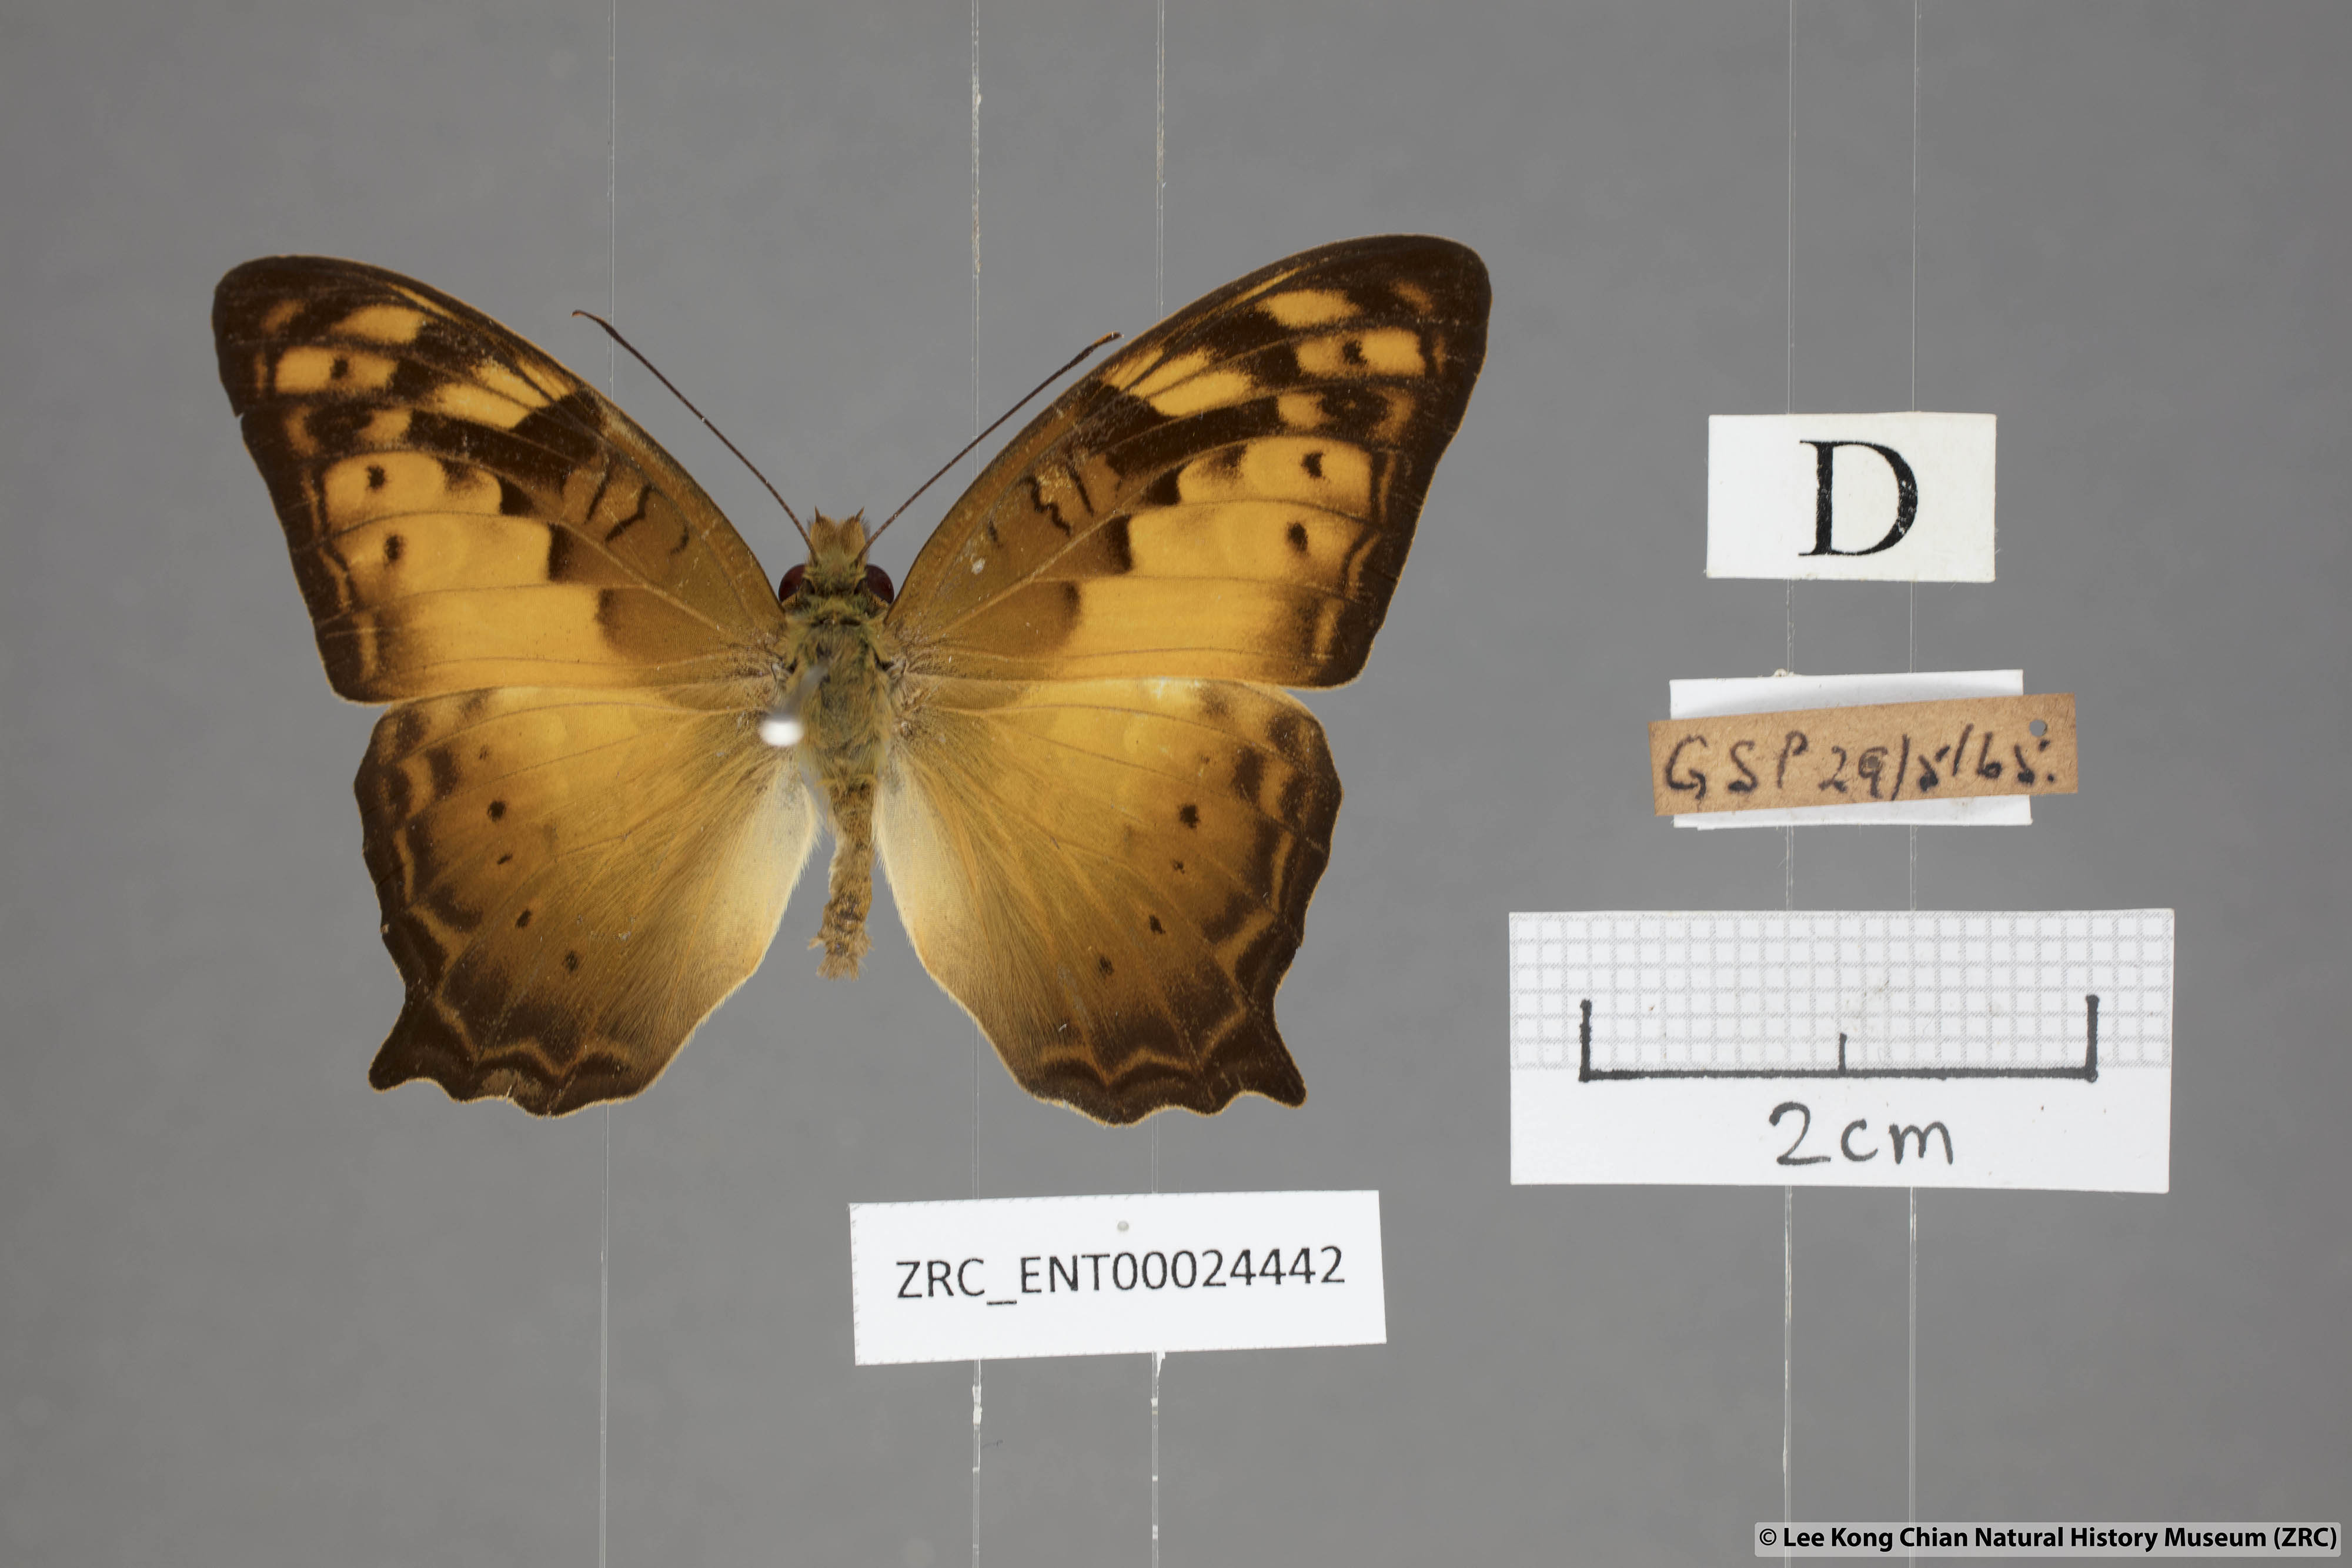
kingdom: Animalia
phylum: Arthropoda
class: Insecta
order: Lepidoptera
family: Nymphalidae
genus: Vagrans
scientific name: Vagrans egista
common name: Tailed rustic
